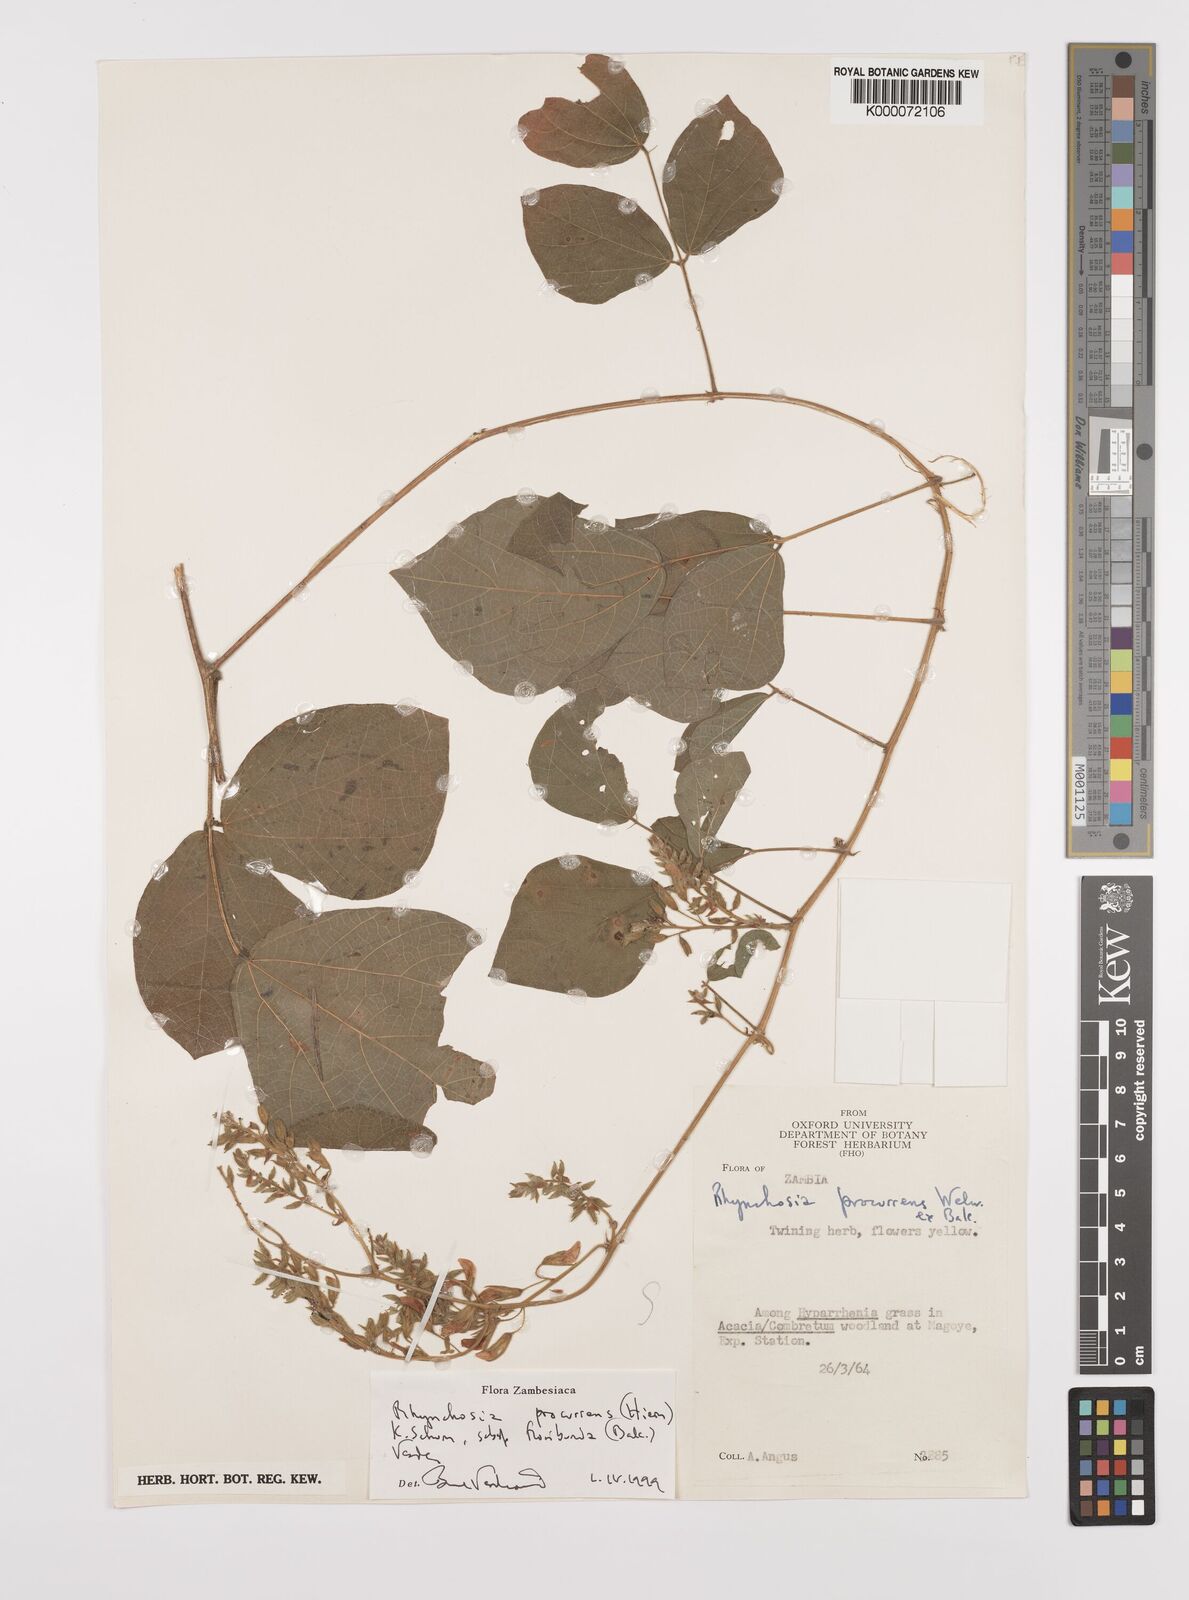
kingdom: Plantae
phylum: Tracheophyta
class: Magnoliopsida
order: Fabales
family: Fabaceae
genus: Rhynchosia
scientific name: Rhynchosia procurrens
